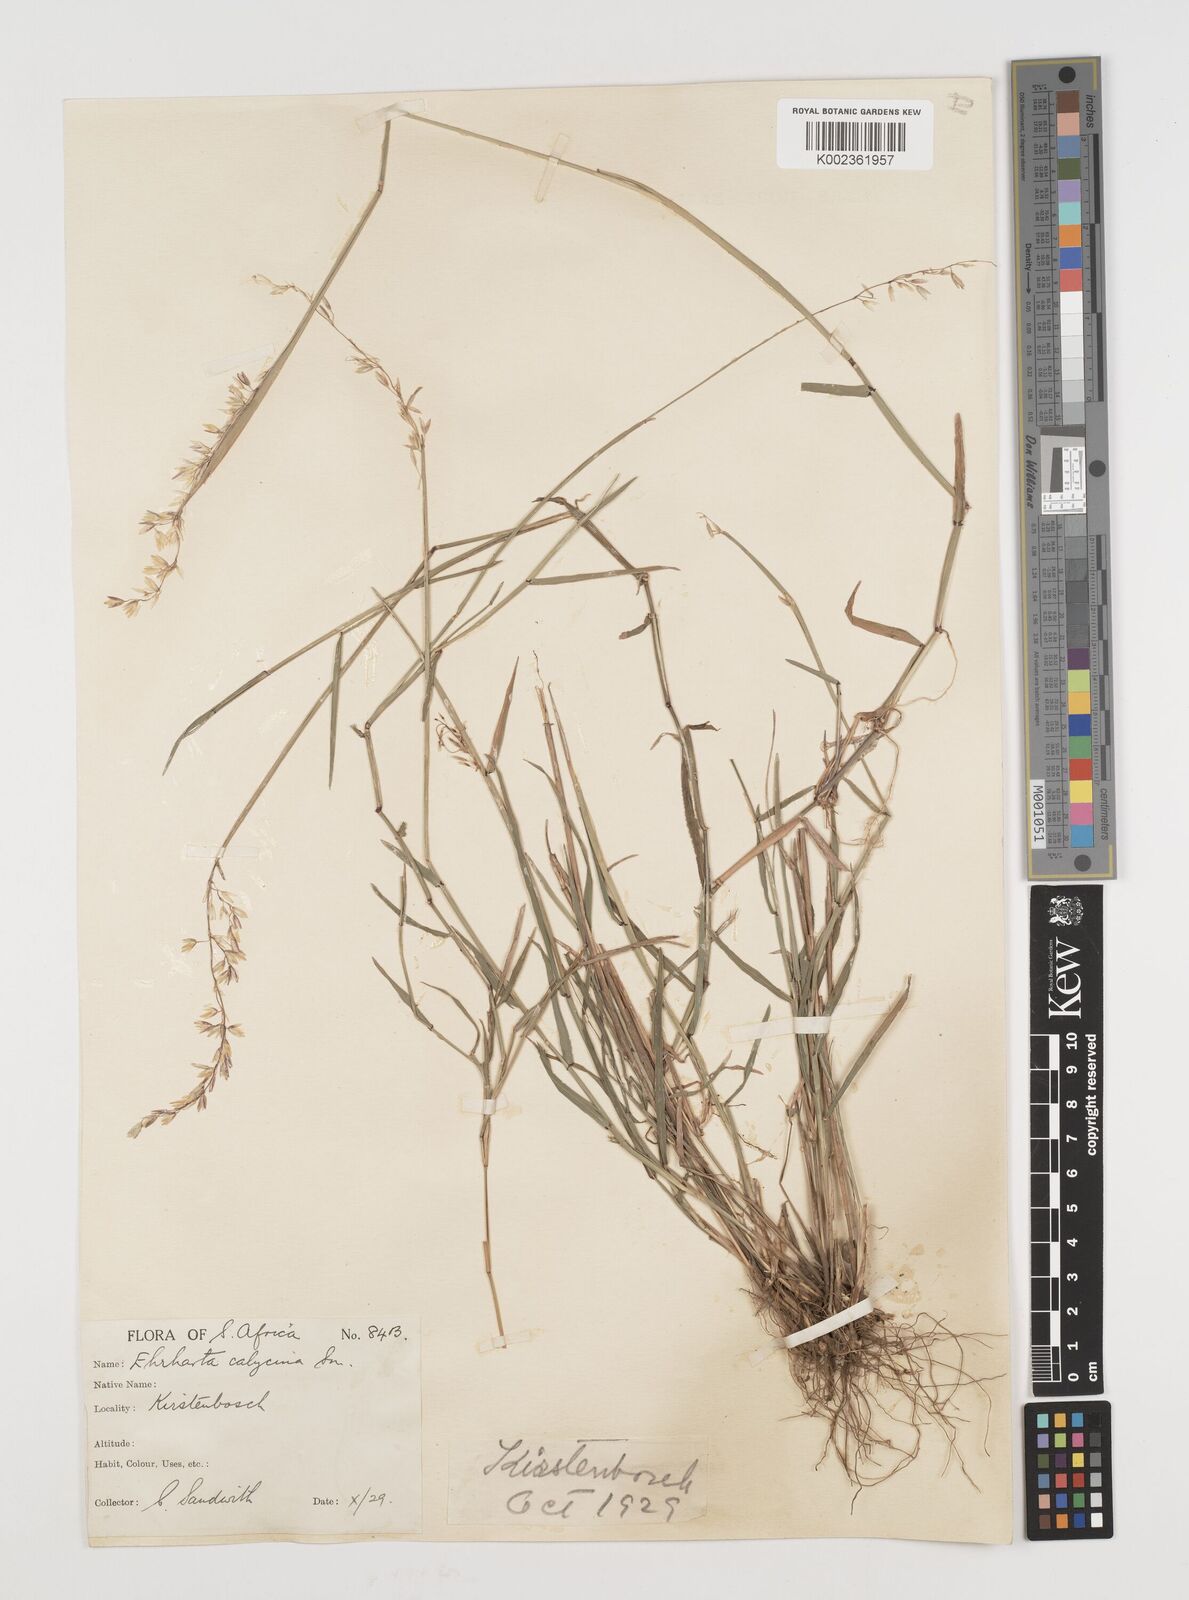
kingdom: Plantae
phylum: Tracheophyta
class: Liliopsida
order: Poales
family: Poaceae
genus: Ehrharta
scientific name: Ehrharta calycina
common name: Perennial veldtgrass
